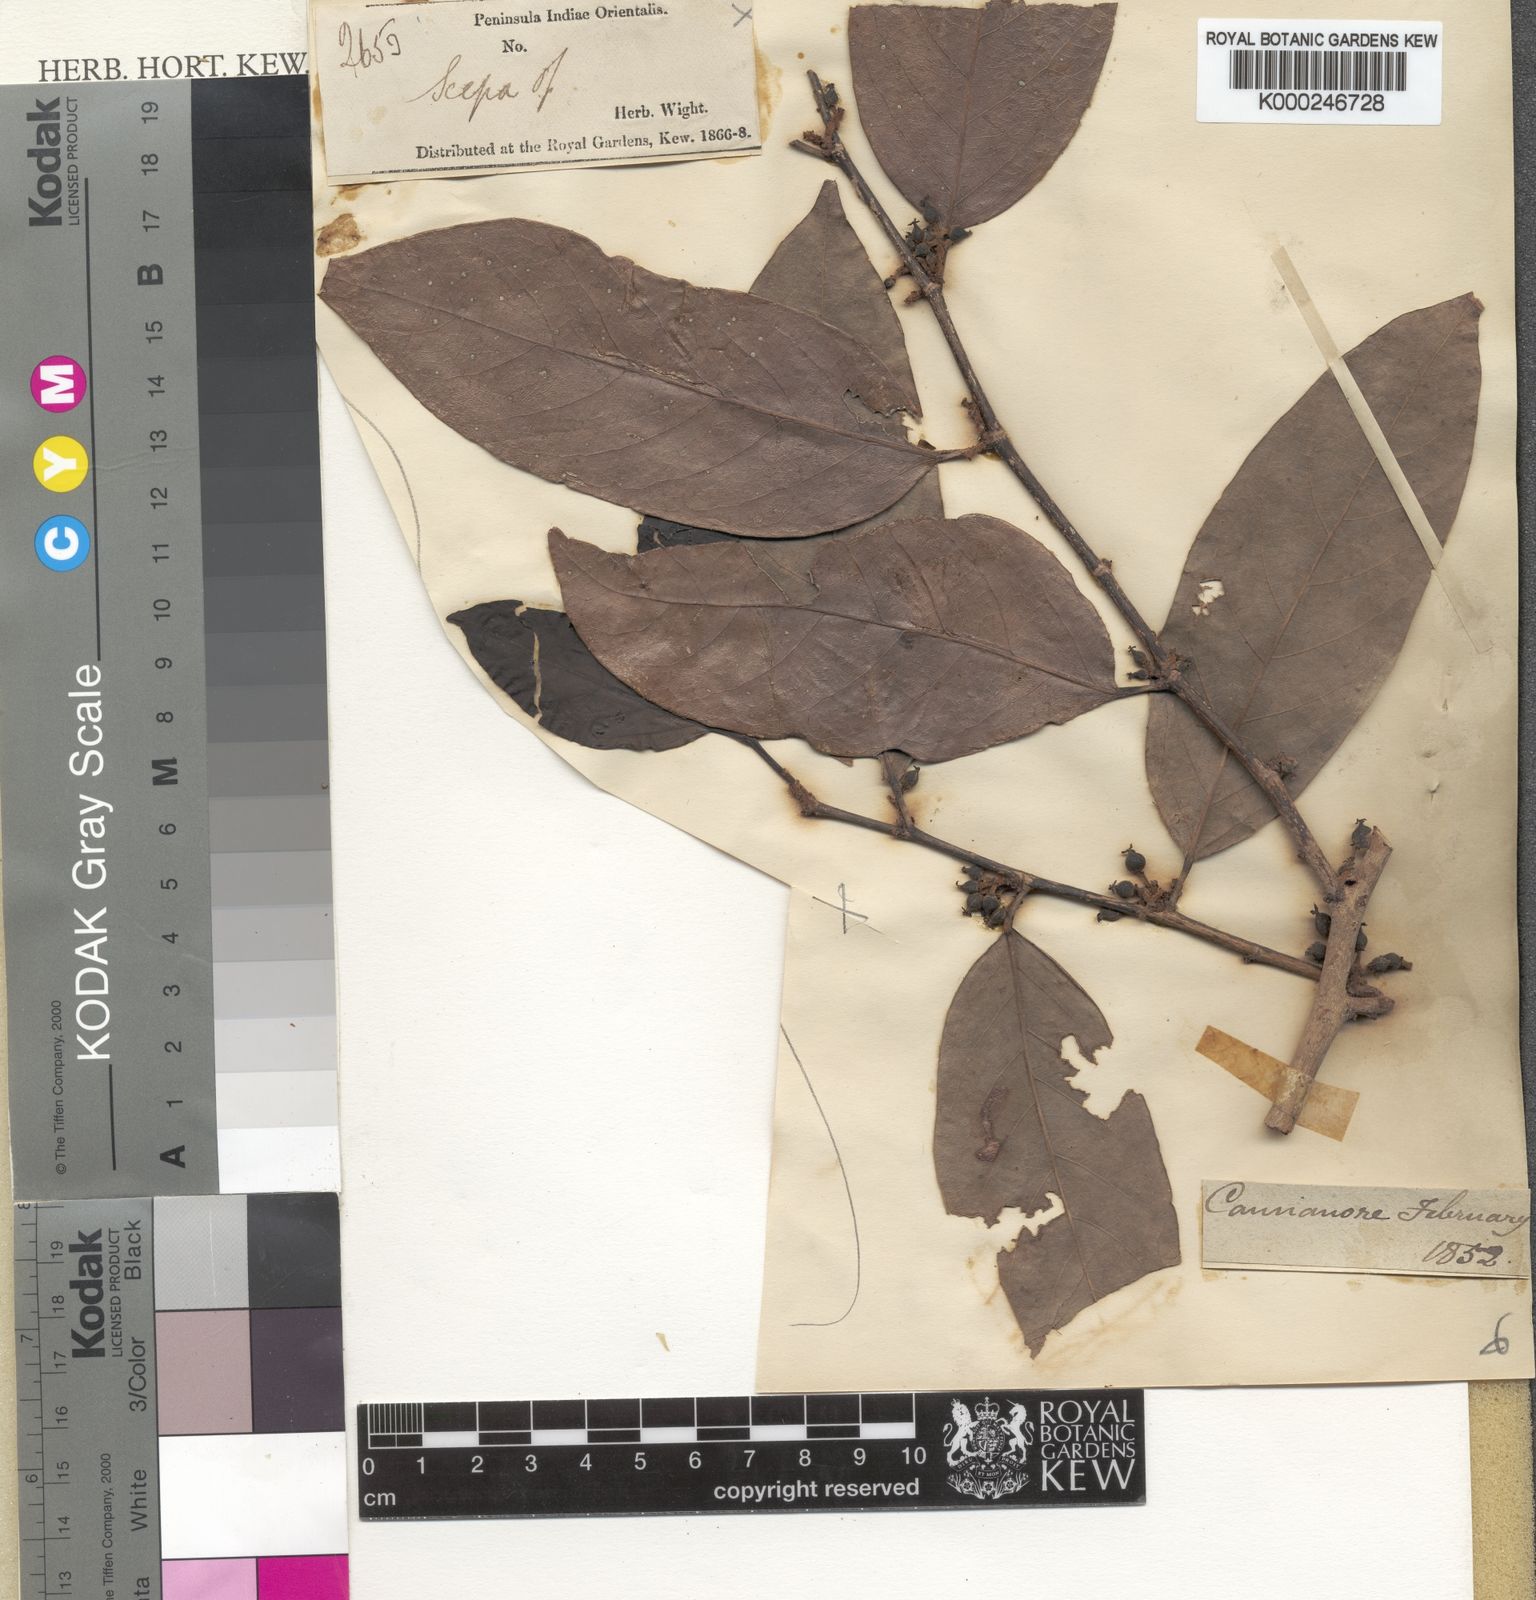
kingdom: Plantae
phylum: Tracheophyta
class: Magnoliopsida
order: Malpighiales
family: Phyllanthaceae
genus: Aporosa
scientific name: Aporosa cardiosperma
